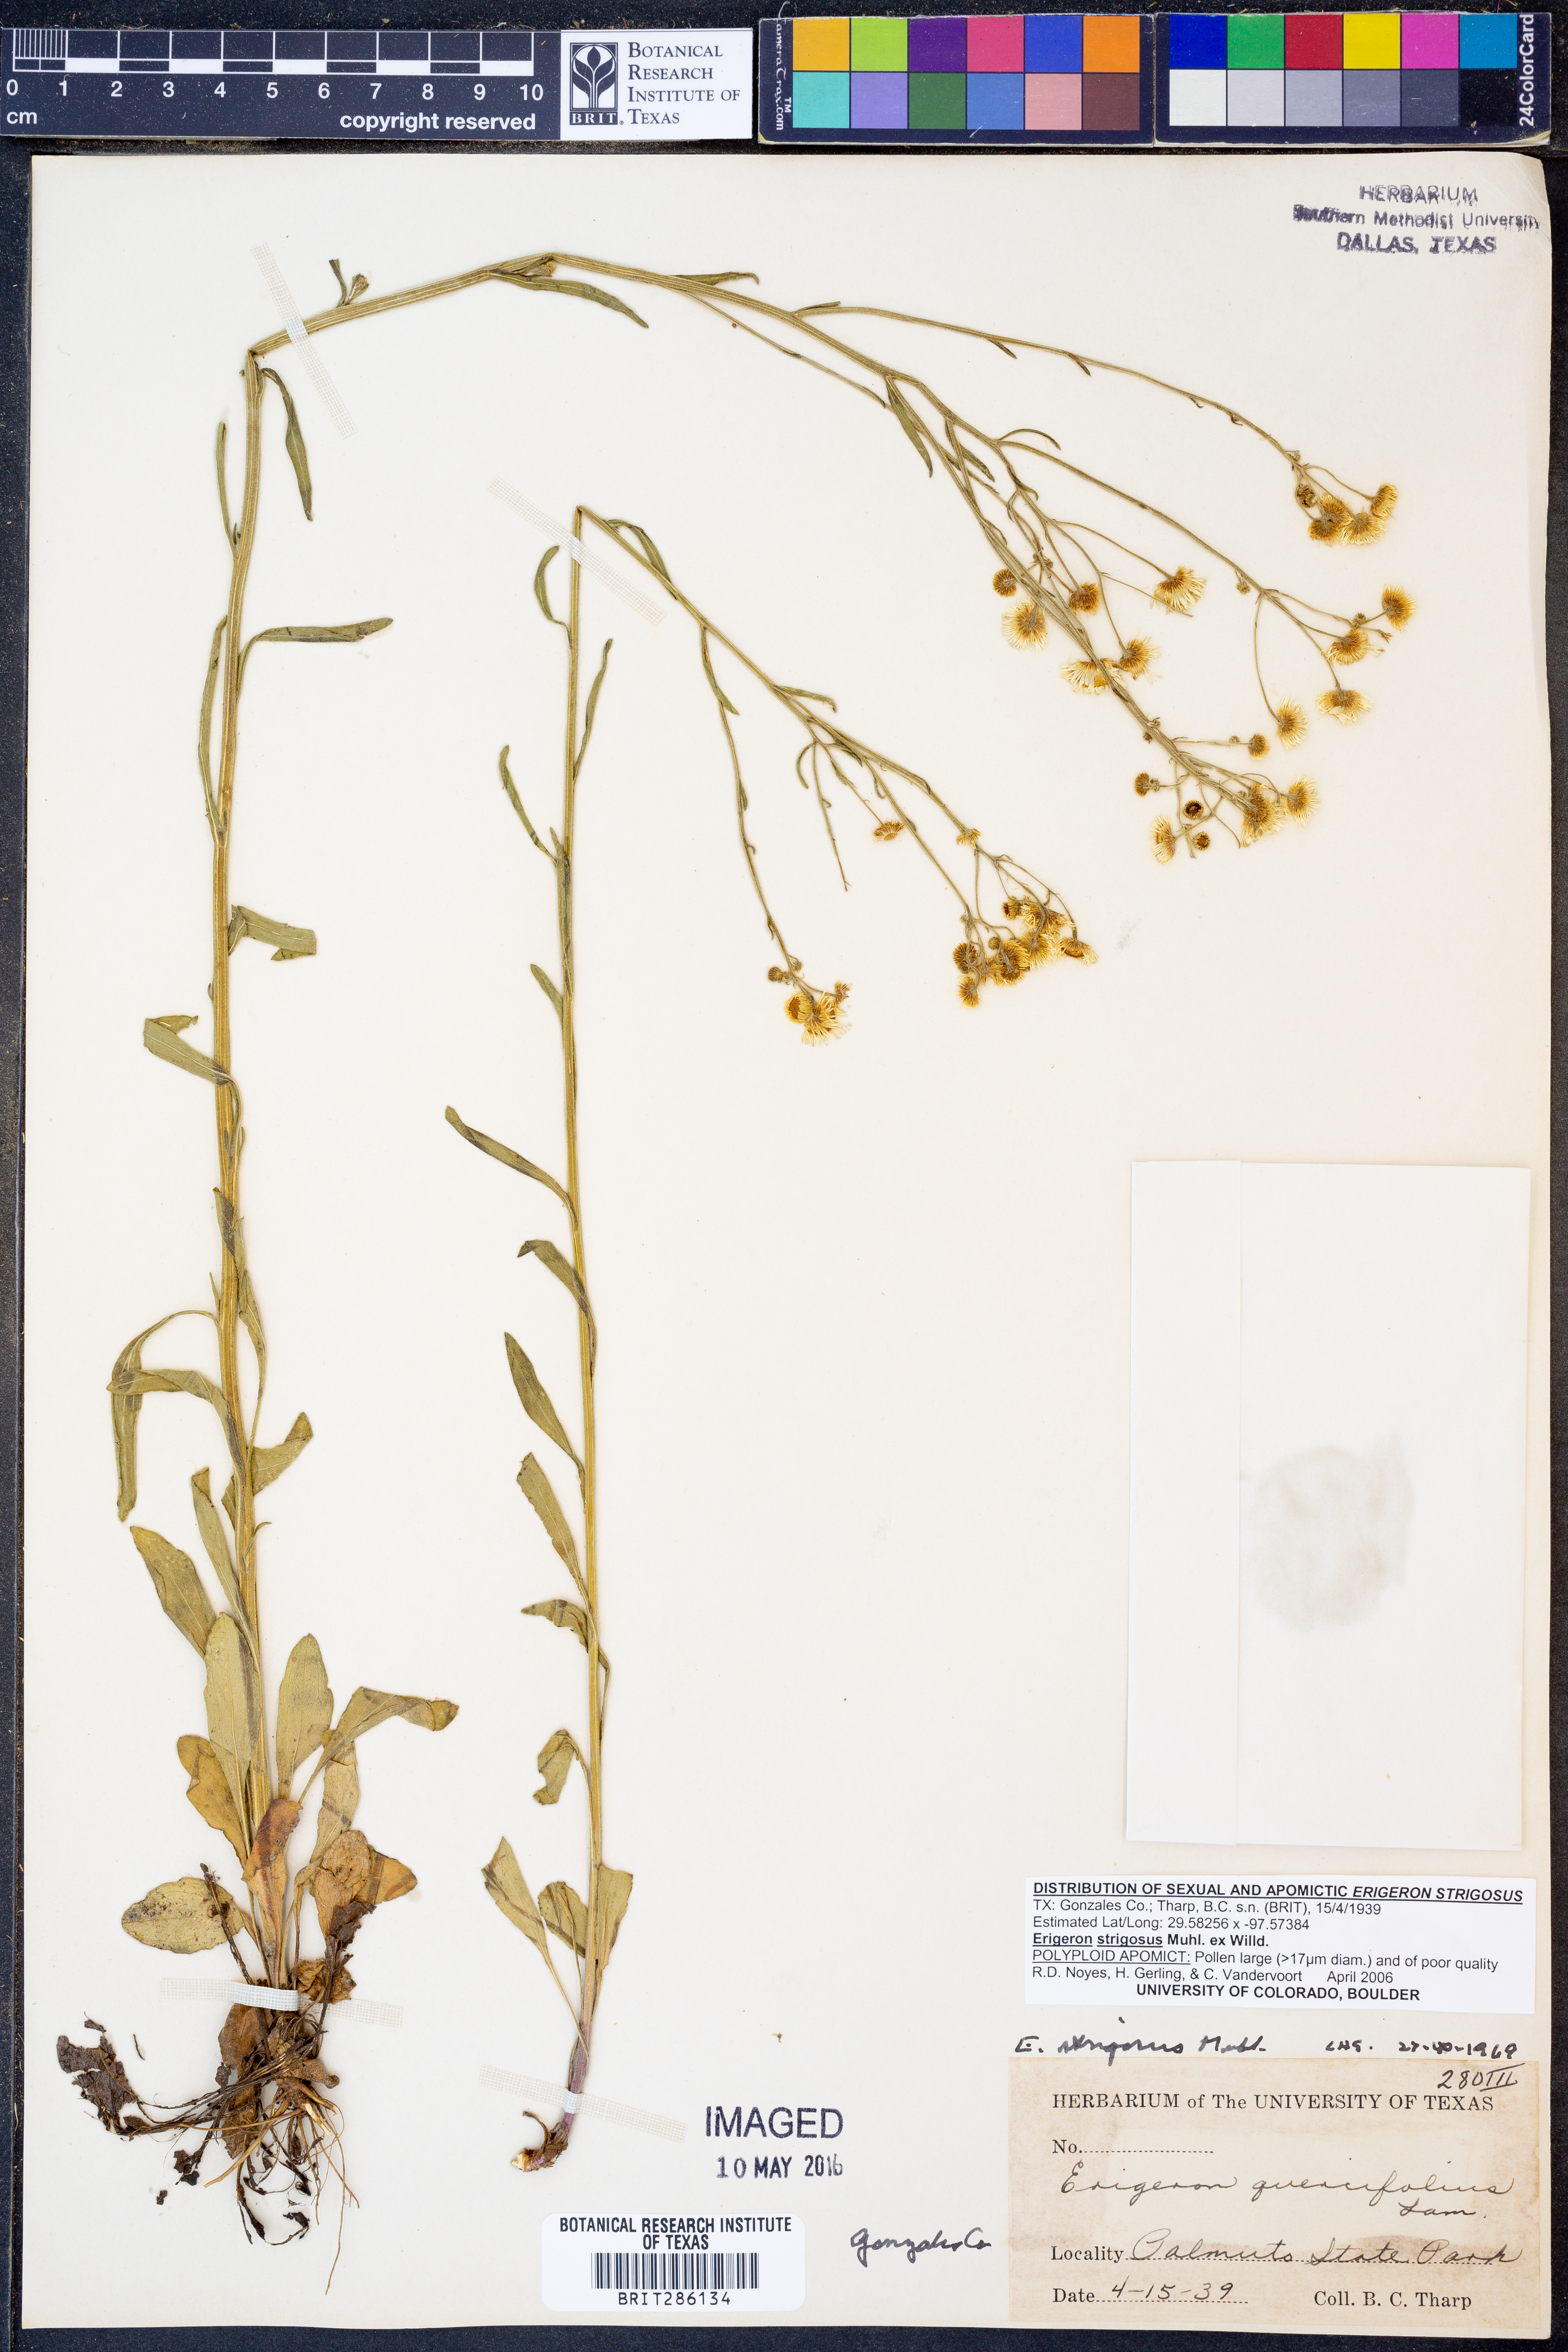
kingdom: Plantae
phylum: Tracheophyta
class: Magnoliopsida
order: Asterales
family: Asteraceae
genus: Erigeron
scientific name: Erigeron strigosus
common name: Common eastern fleabane
